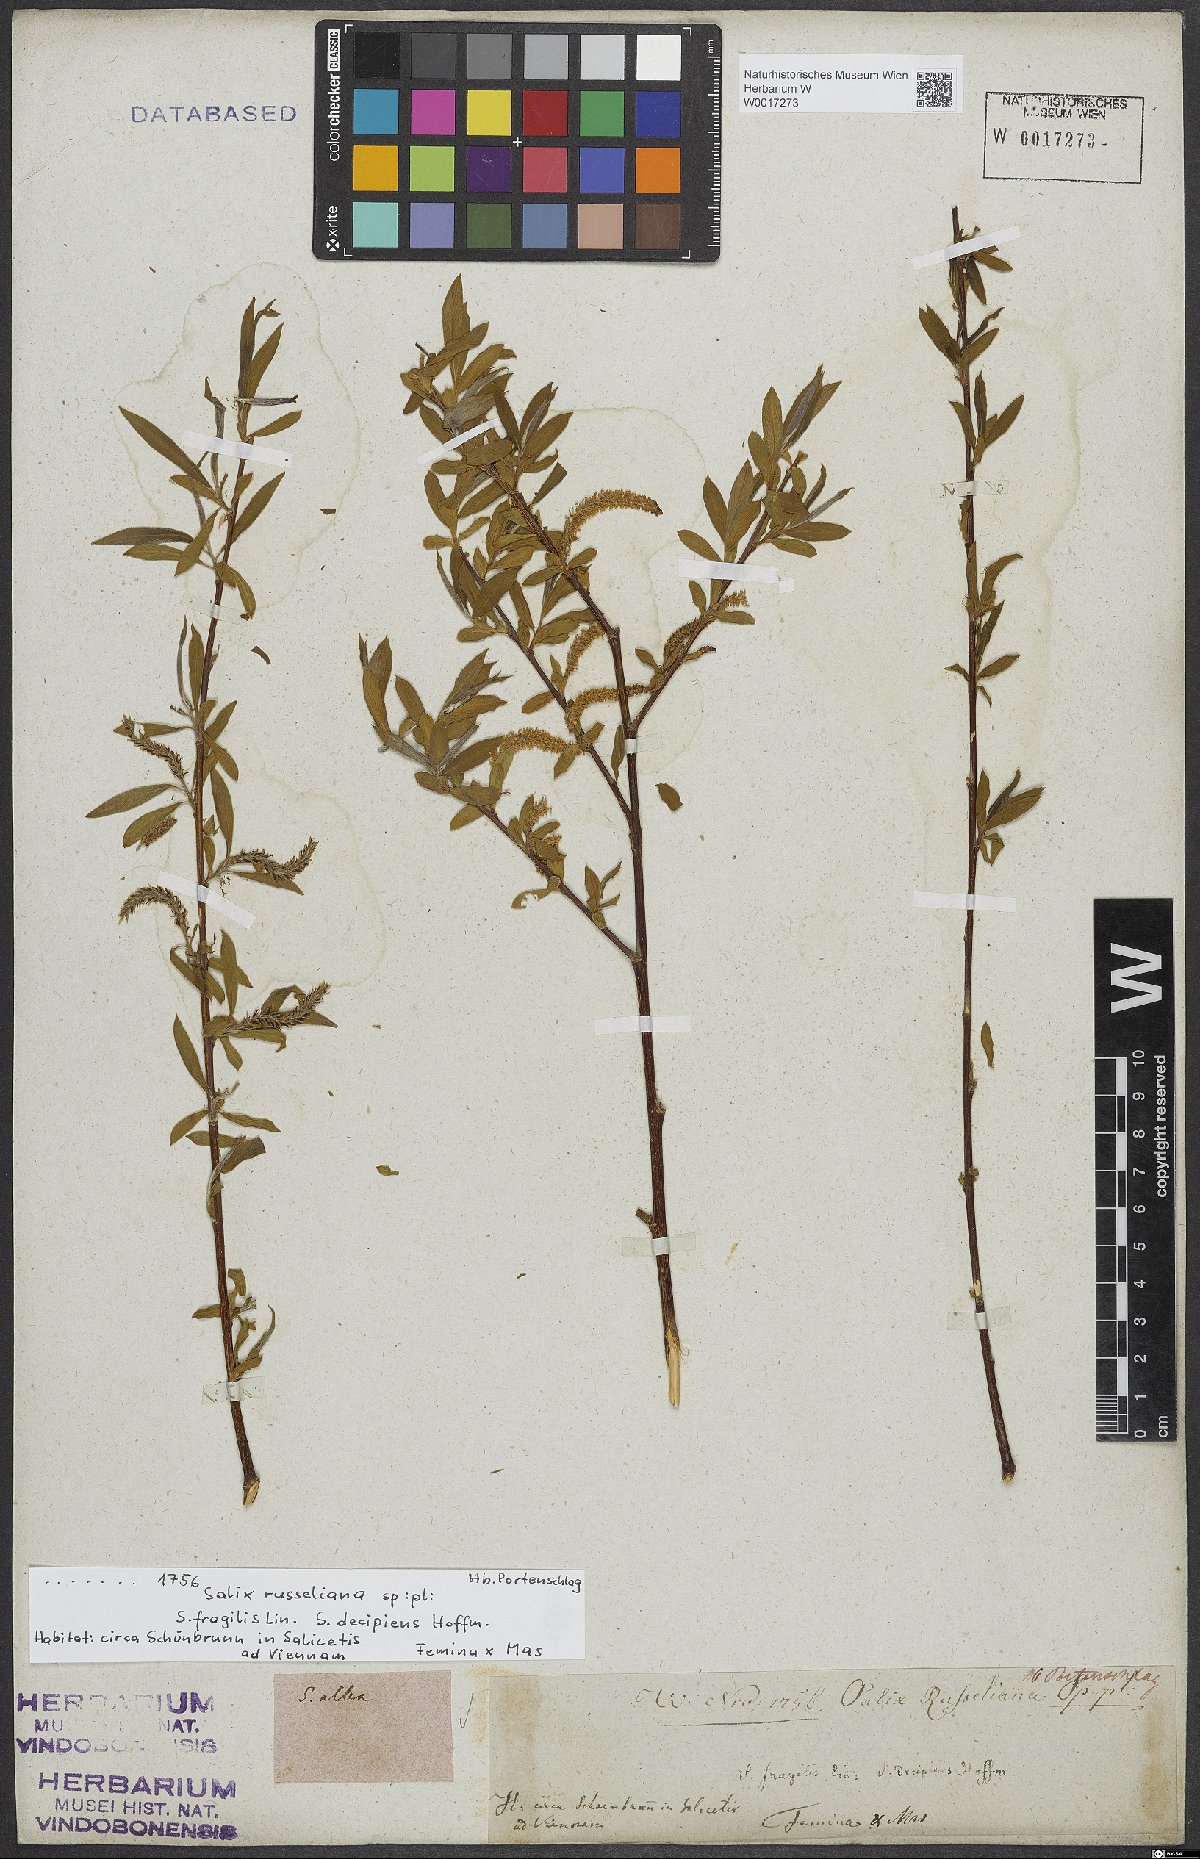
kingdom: Plantae
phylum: Tracheophyta
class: Magnoliopsida
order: Malpighiales
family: Salicaceae
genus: Salix
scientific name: Salix alba
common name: White willow
